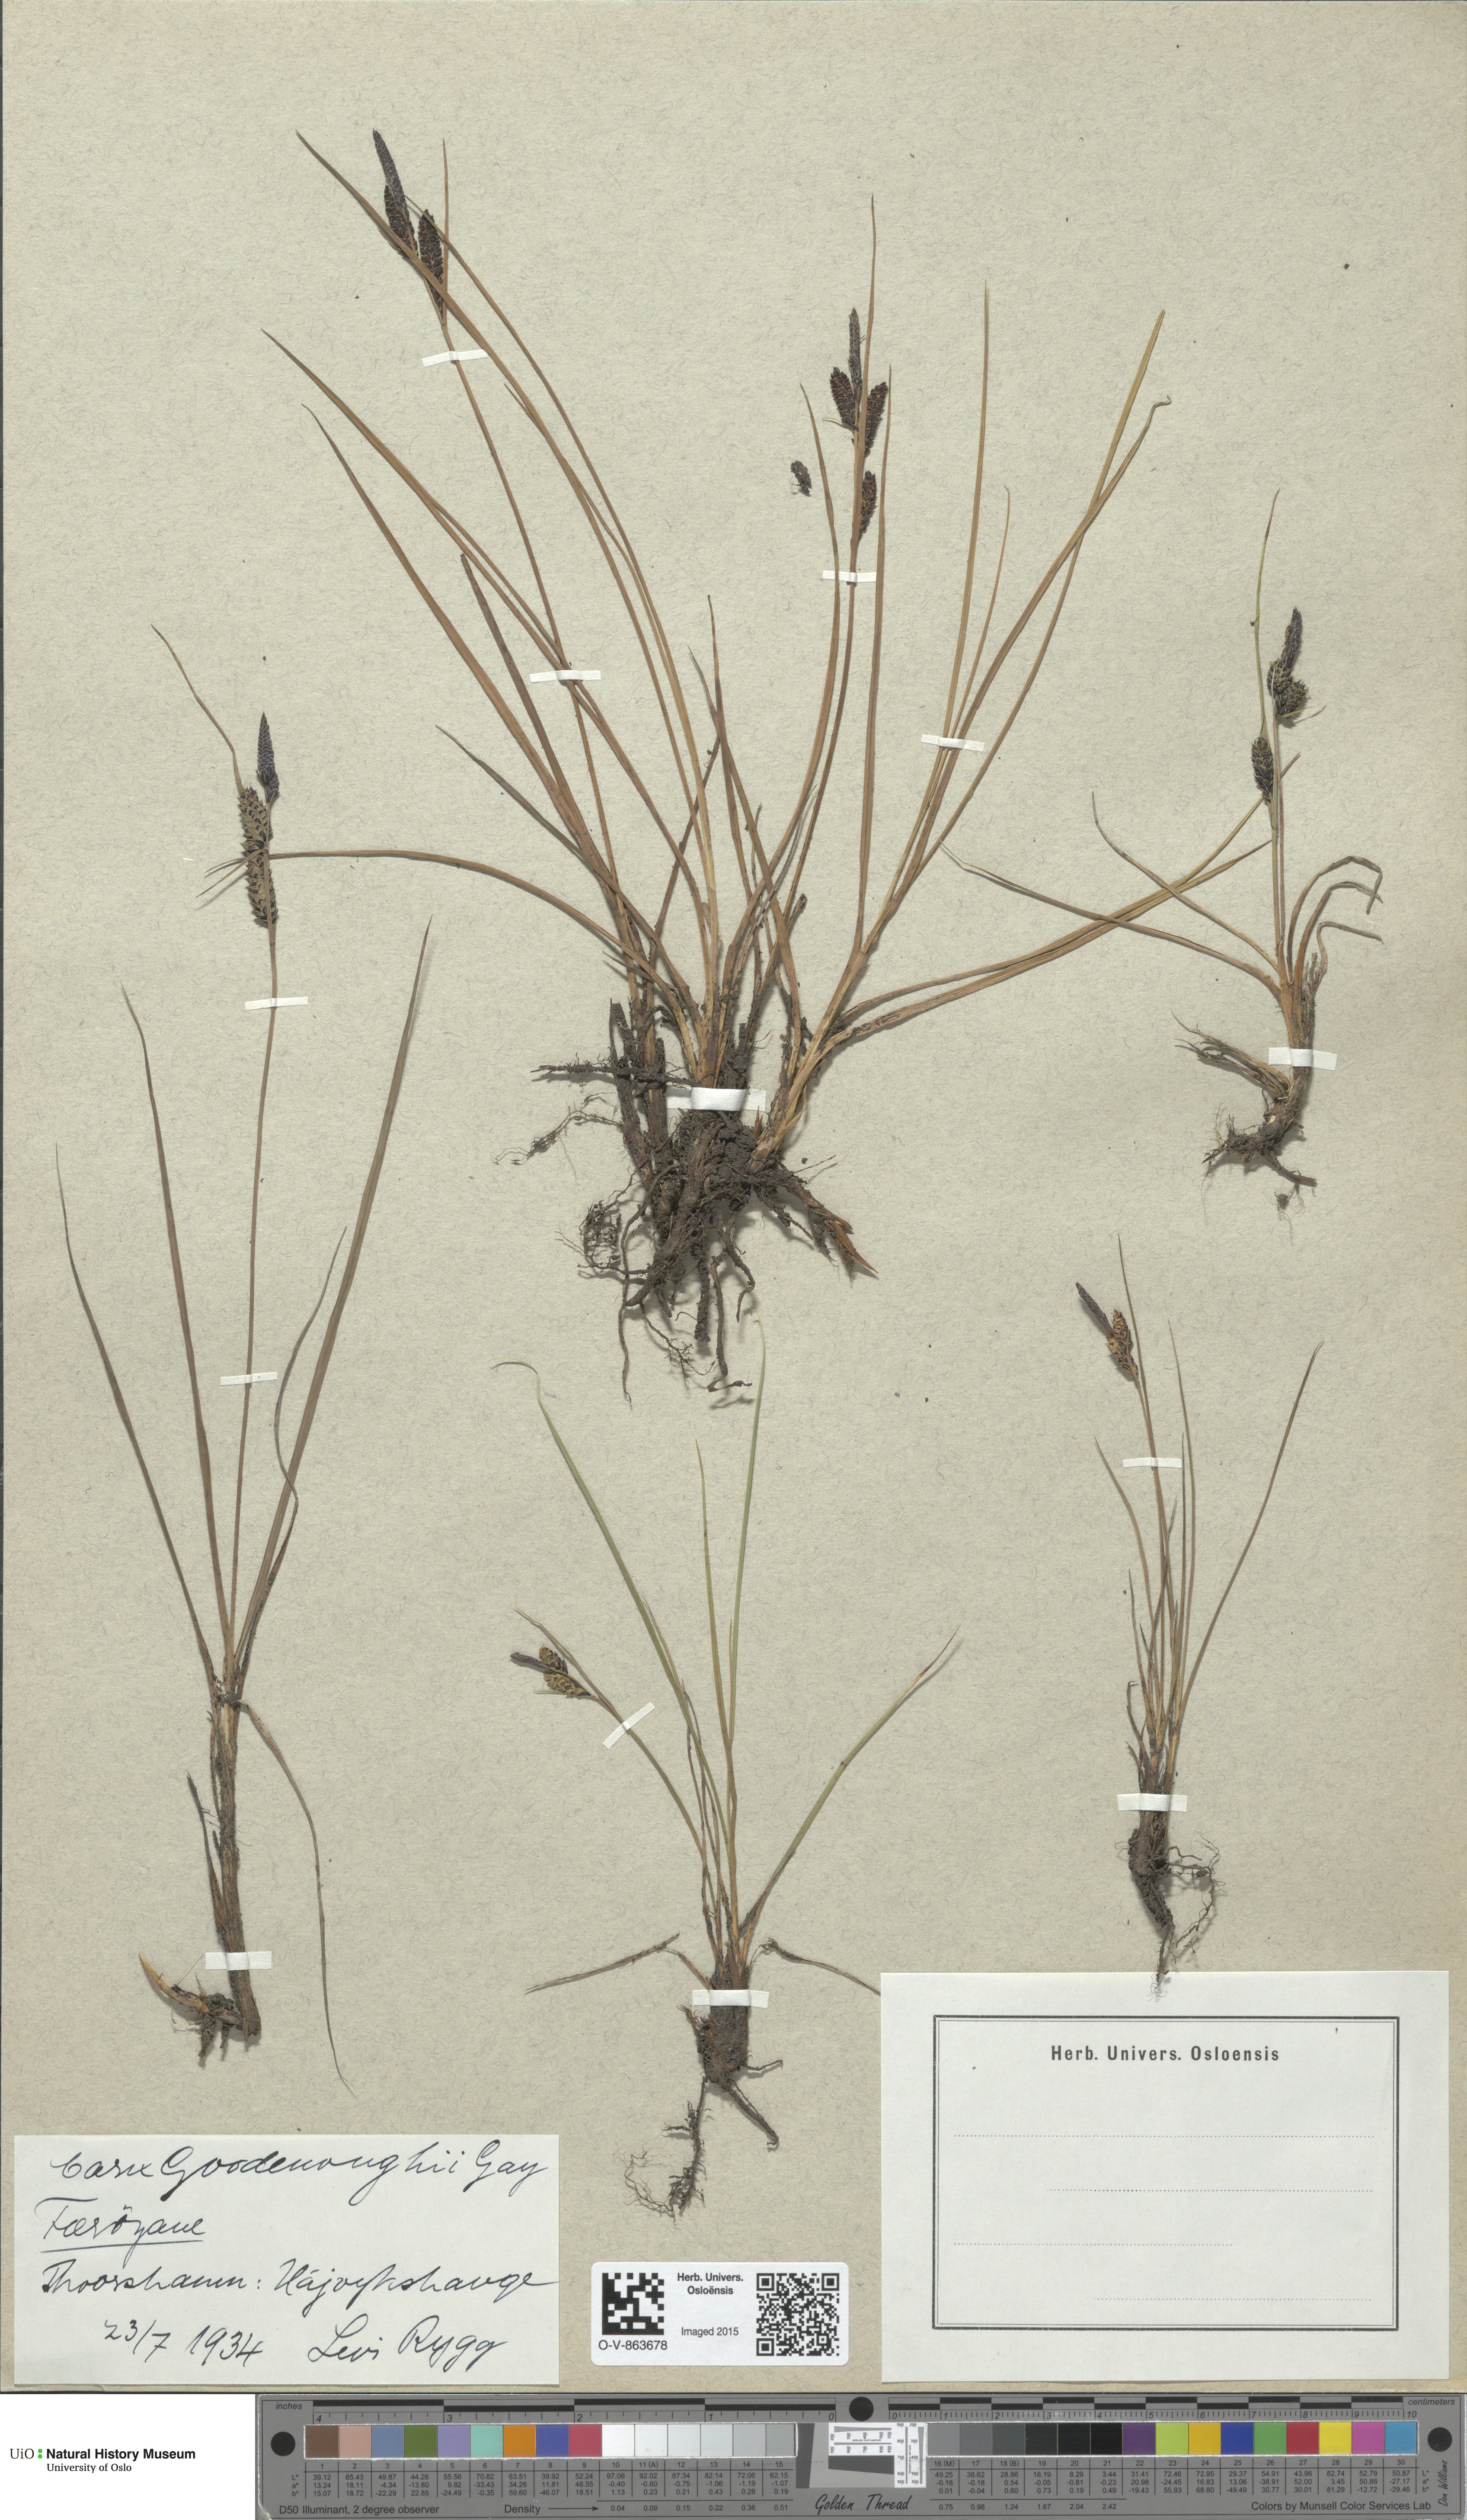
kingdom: Plantae
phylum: Tracheophyta
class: Liliopsida
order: Poales
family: Cyperaceae
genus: Carex
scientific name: Carex nigra
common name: Common sedge
